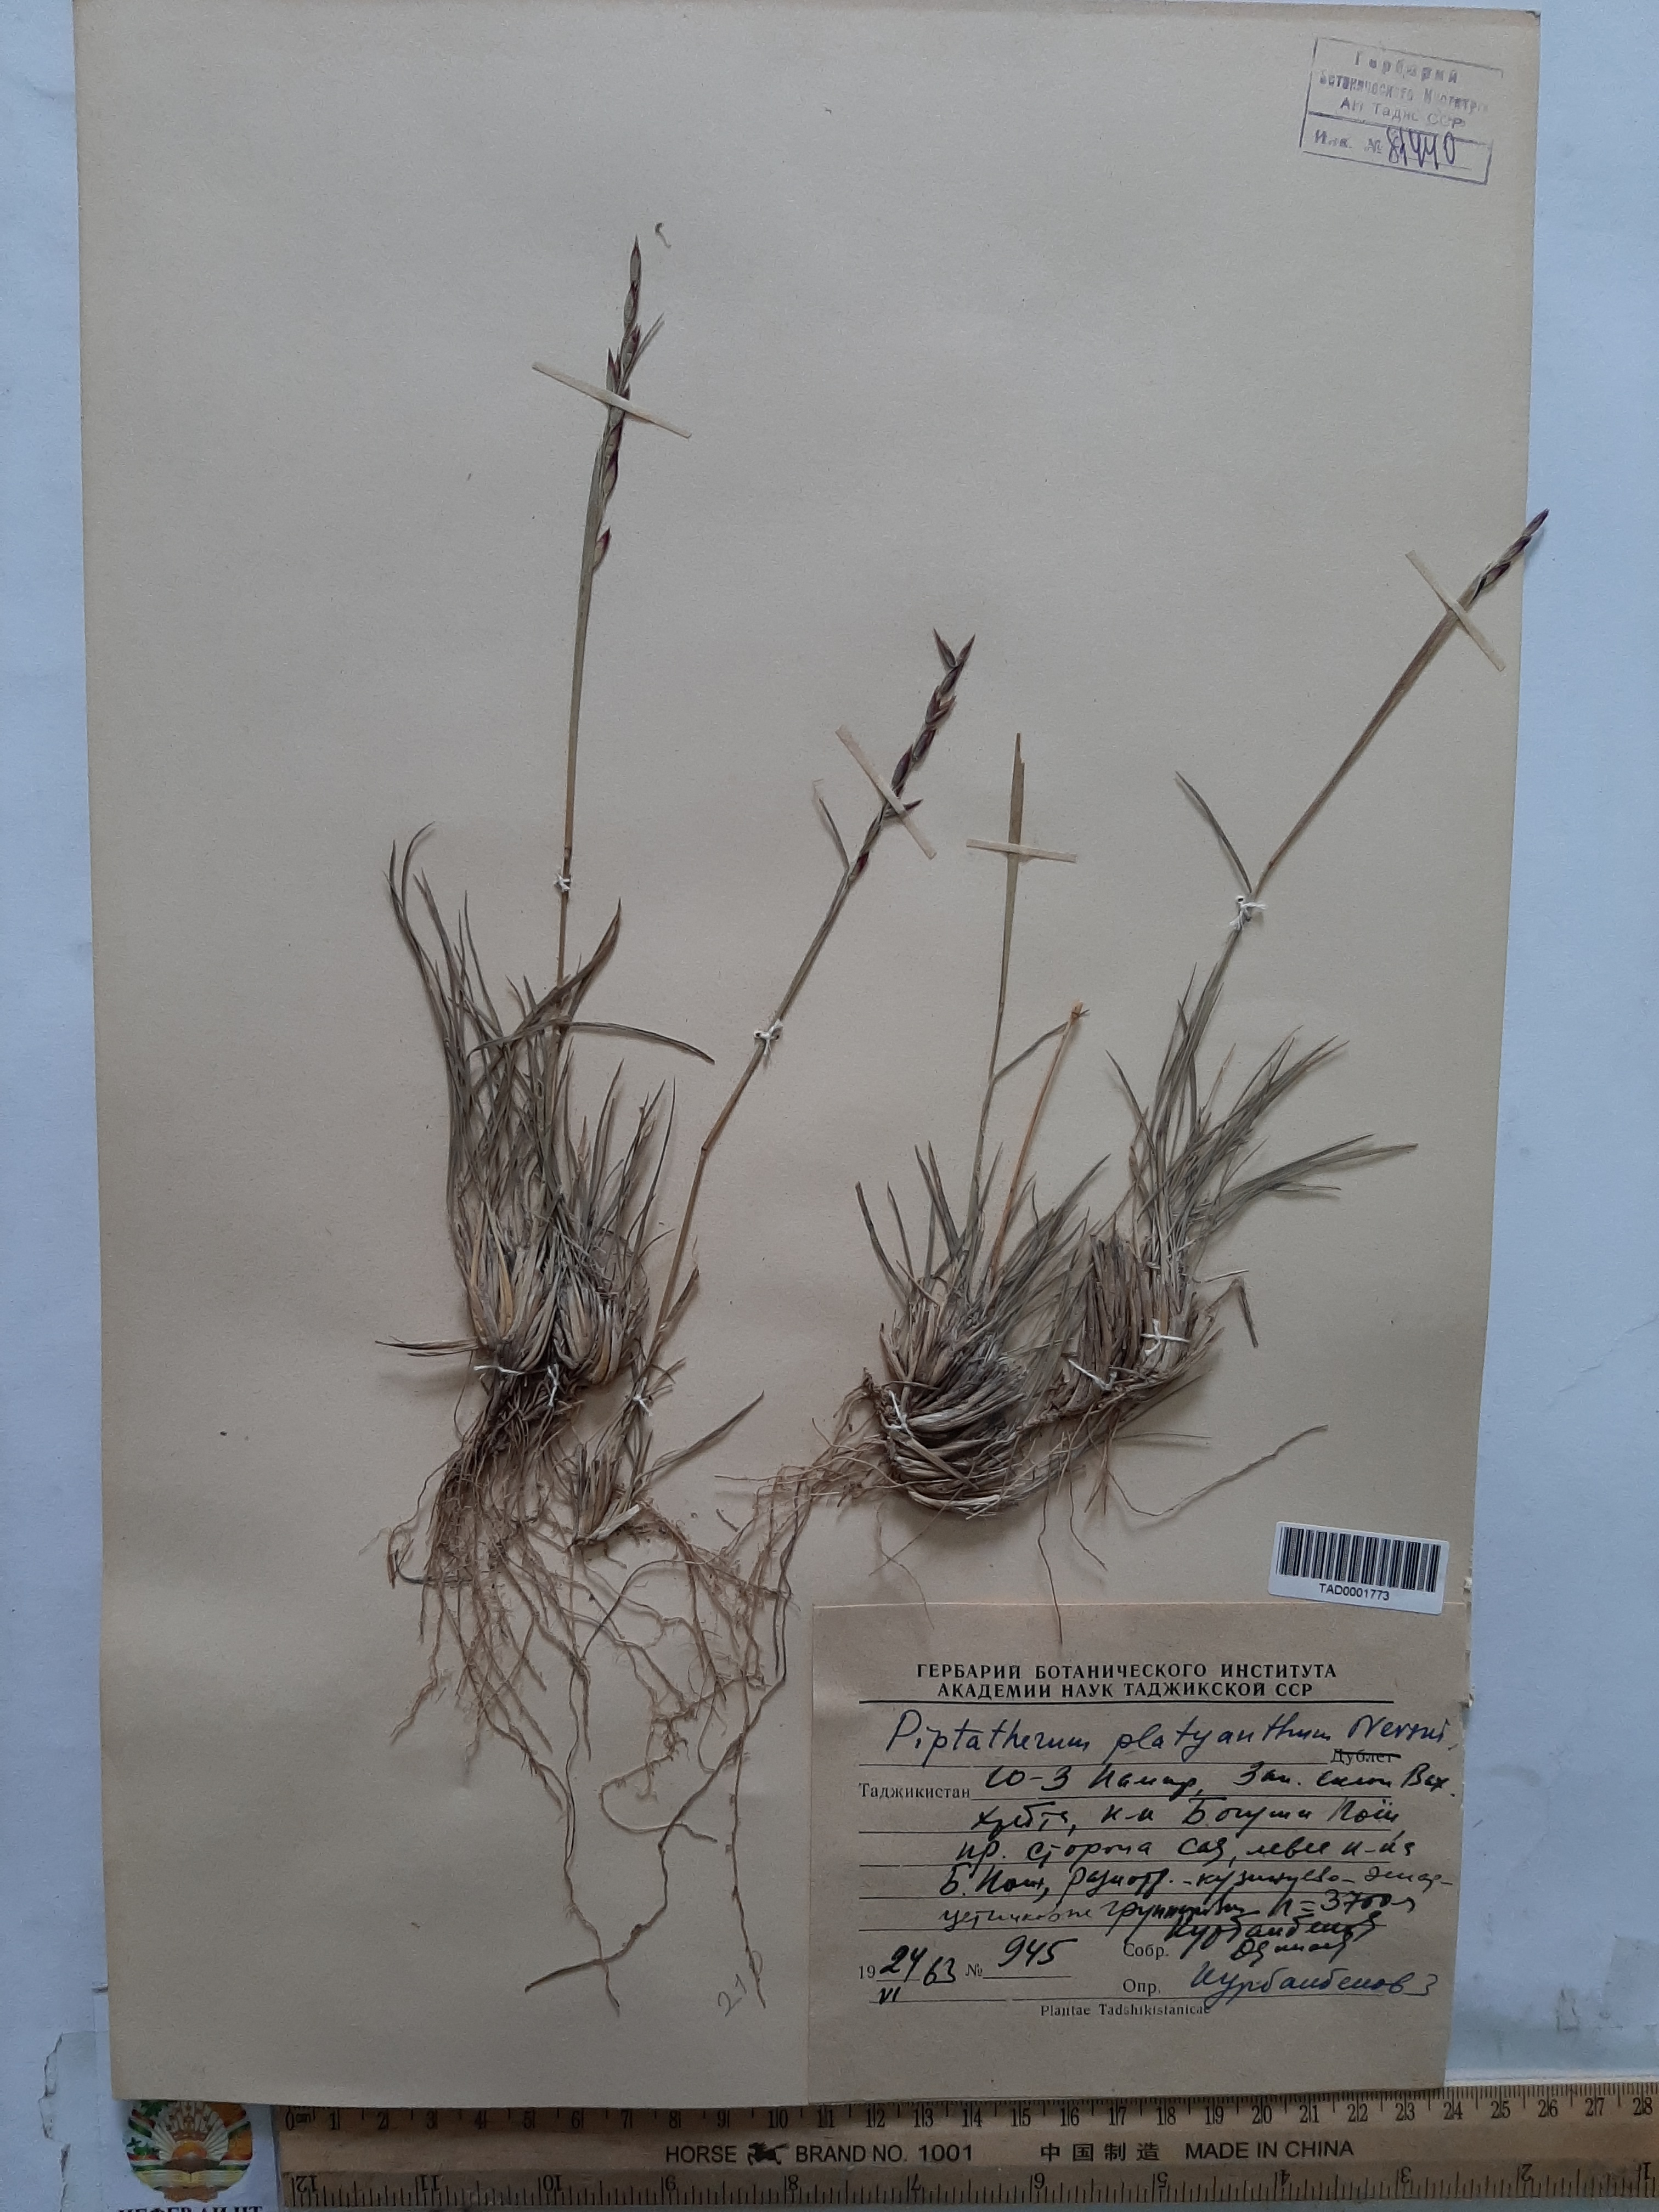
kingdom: Plantae
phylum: Tracheophyta
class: Liliopsida
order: Poales
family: Poaceae
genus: Piptatherum
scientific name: Piptatherum platyanthum
